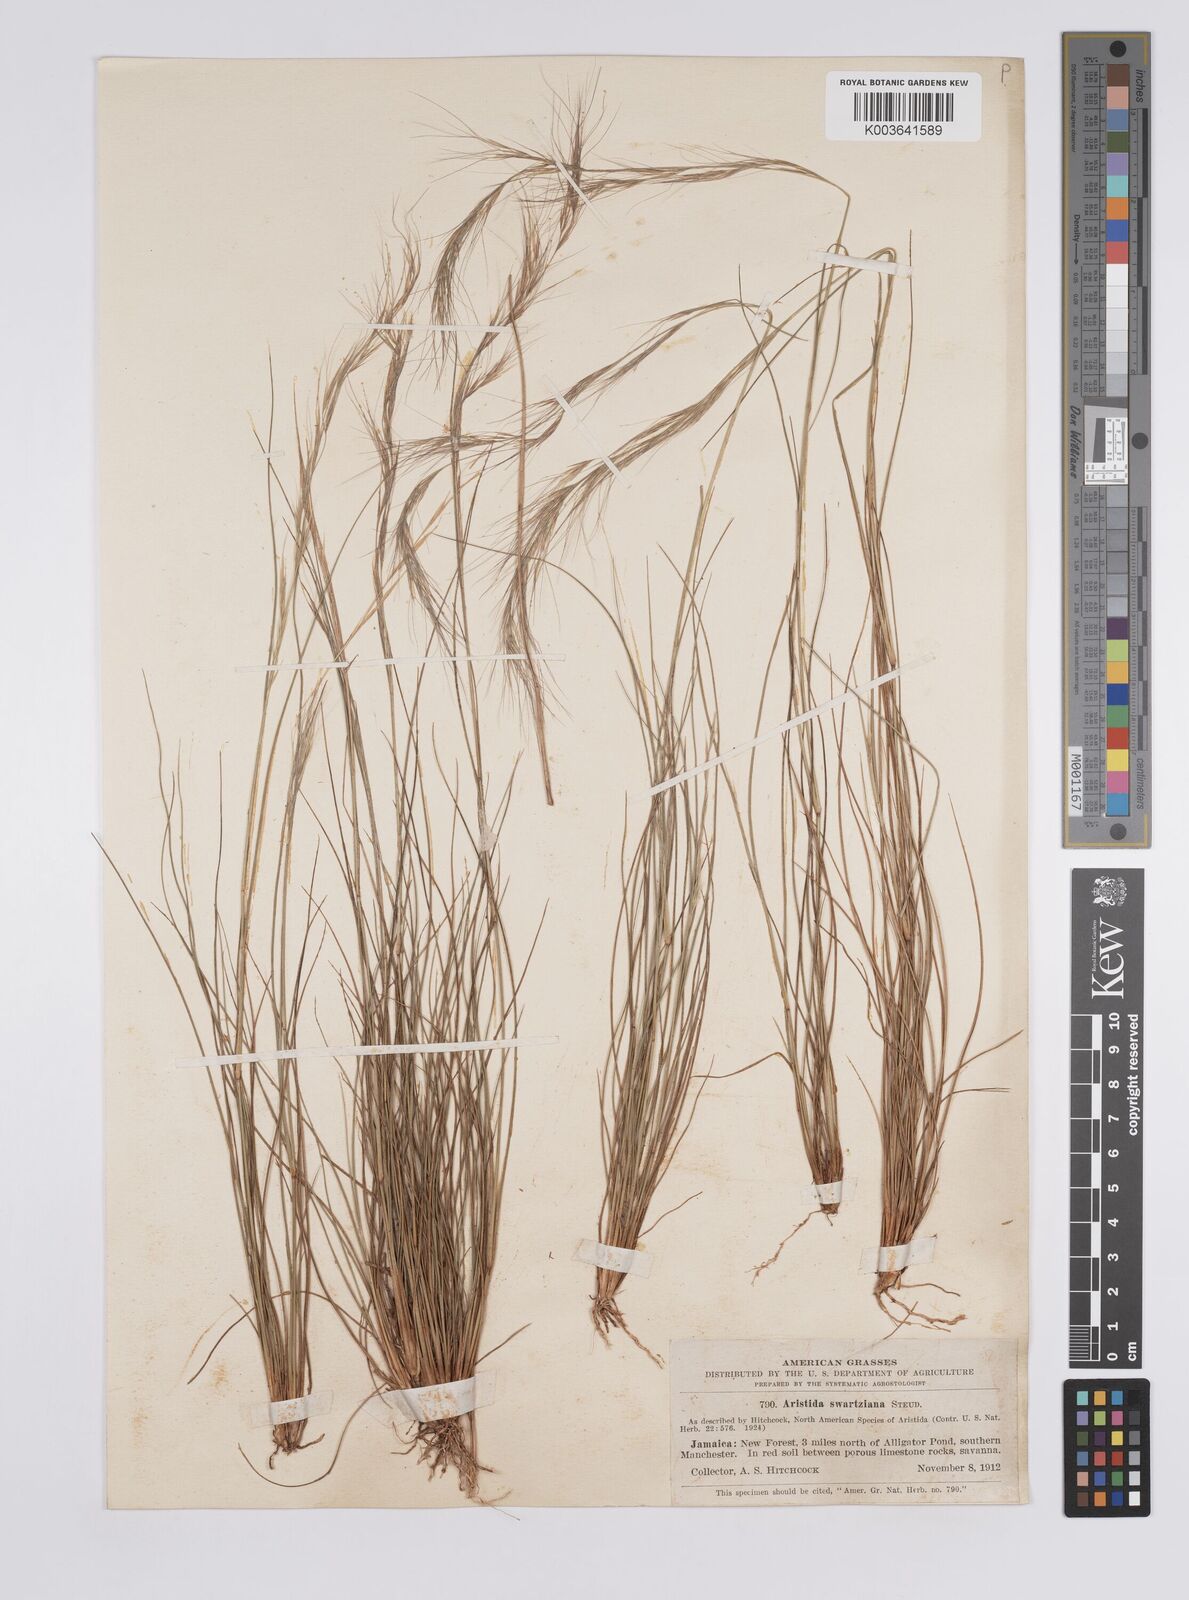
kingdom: Plantae
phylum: Tracheophyta
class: Liliopsida
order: Poales
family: Poaceae
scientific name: Poaceae
